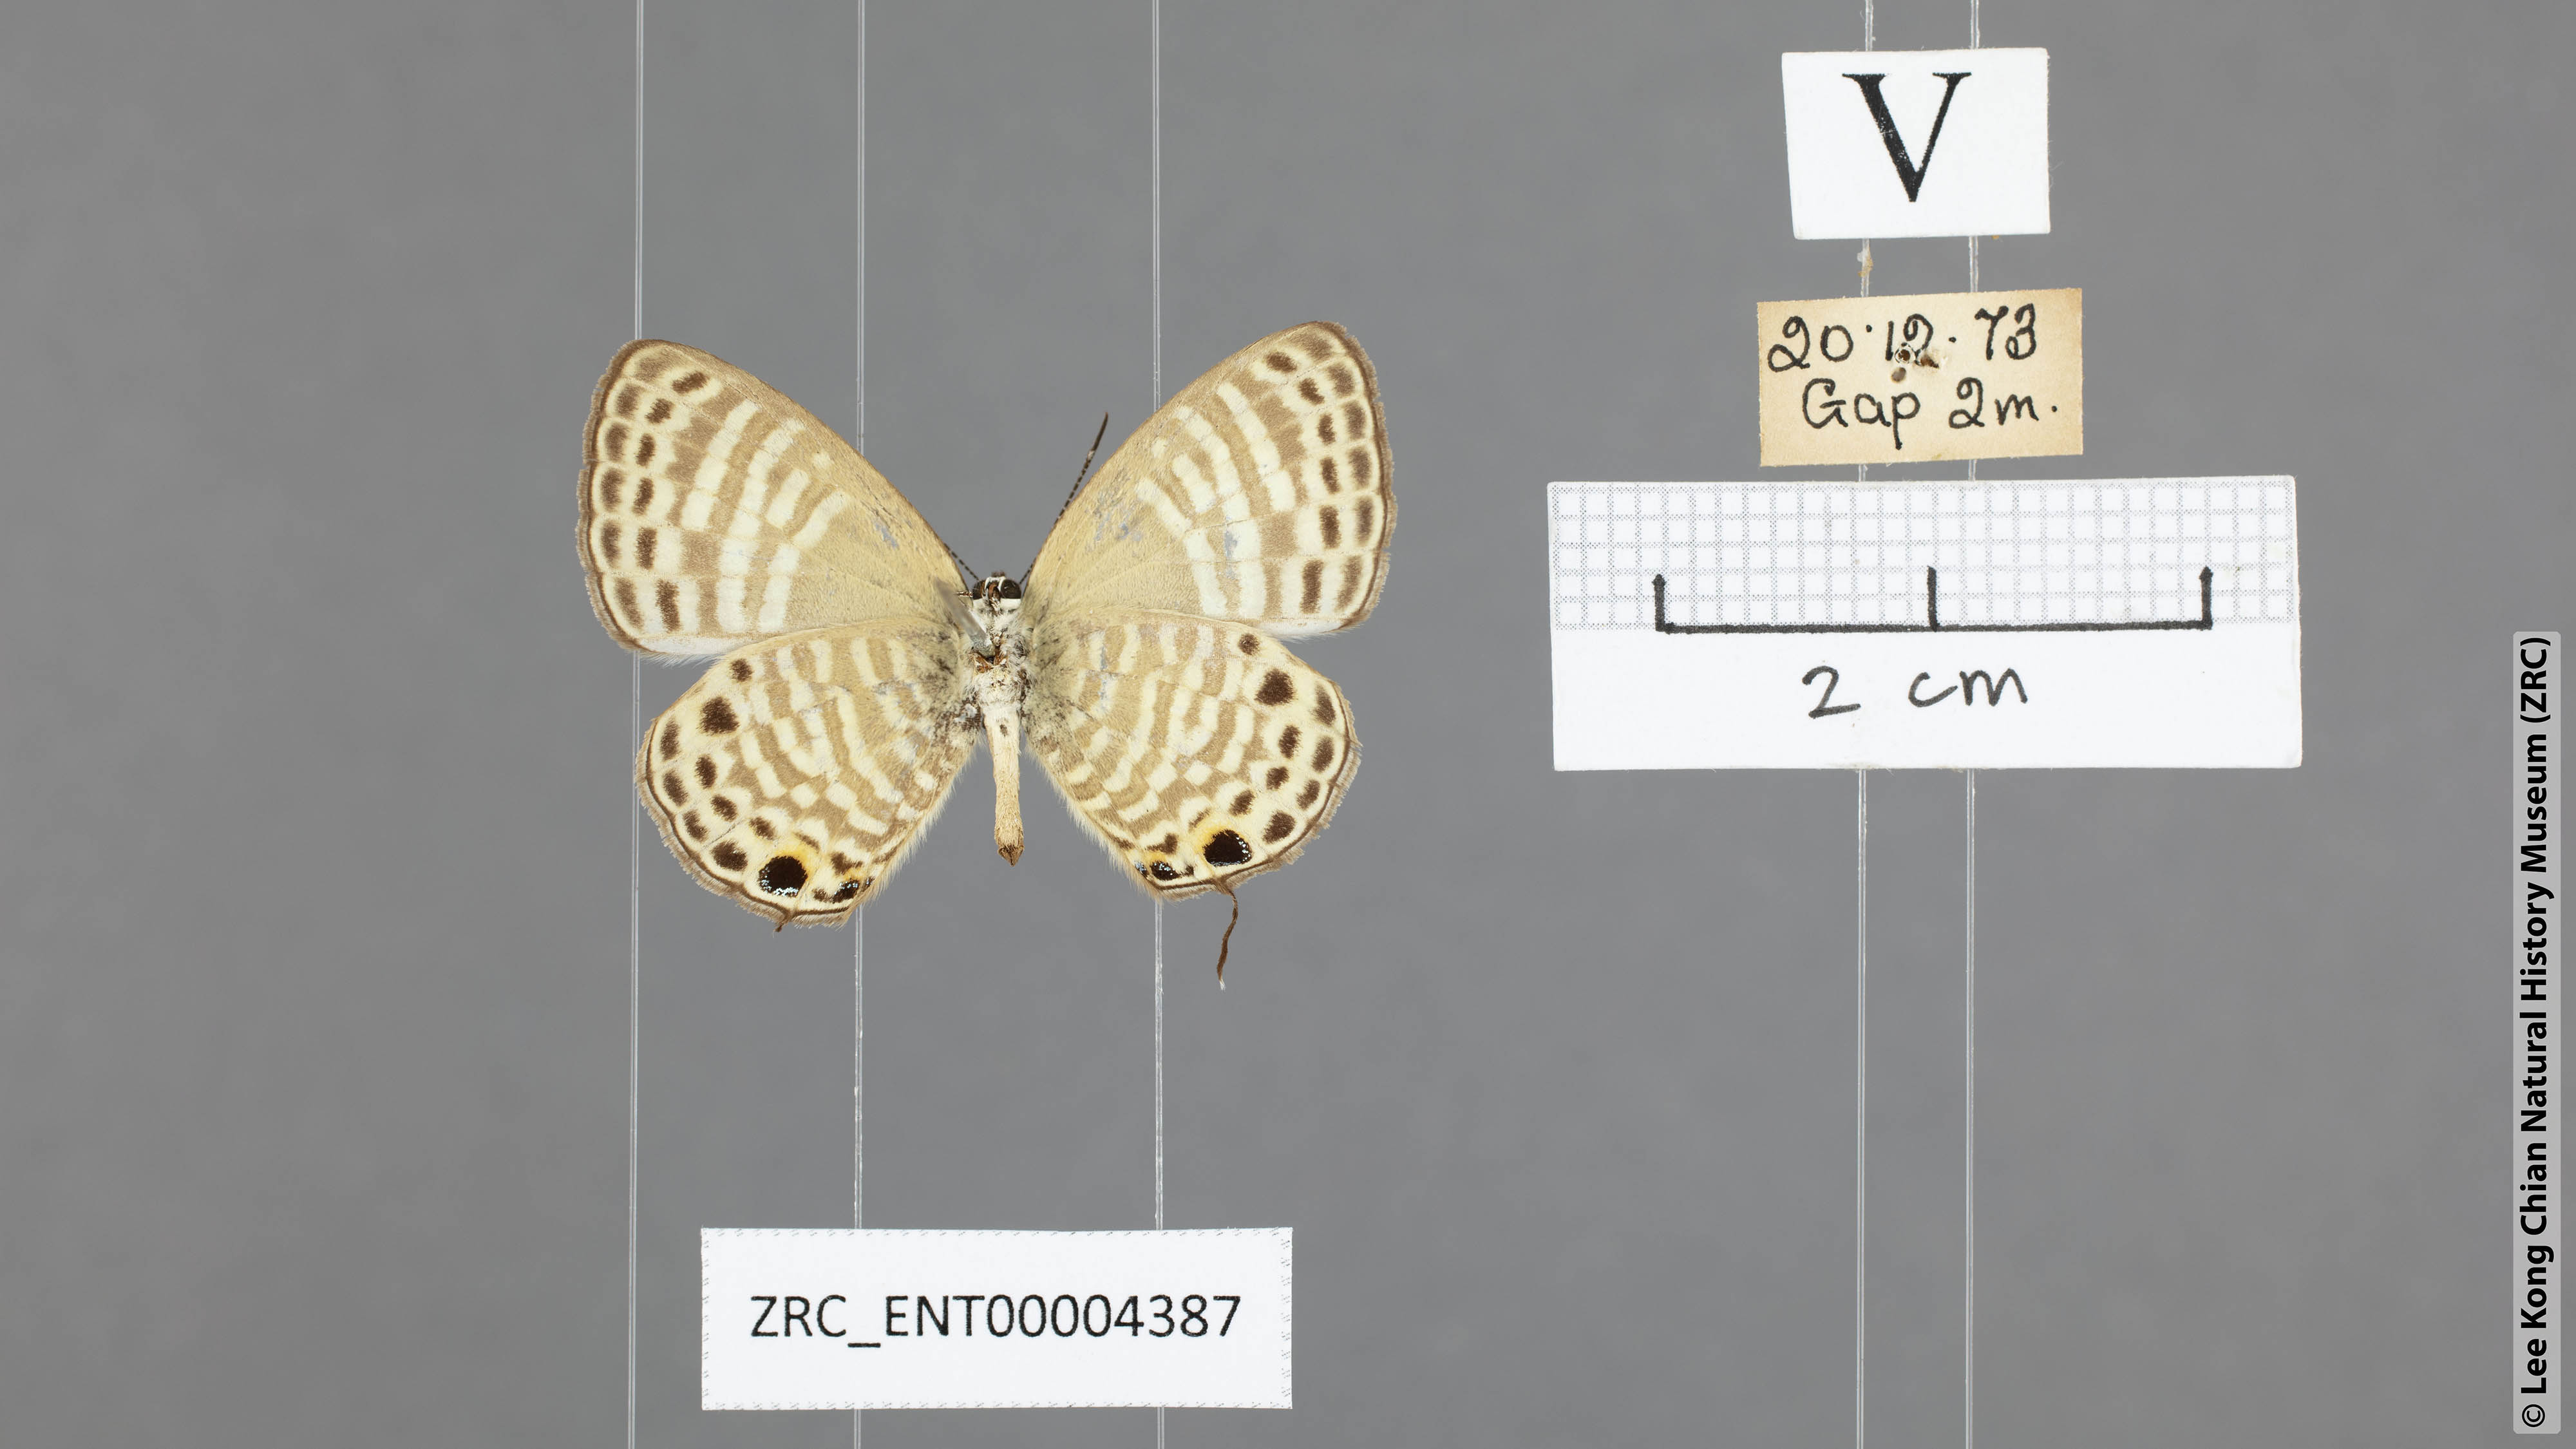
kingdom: Animalia
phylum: Arthropoda
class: Insecta
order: Lepidoptera
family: Lycaenidae
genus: Nacaduba
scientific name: Nacaduba angusta
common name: White four-line blue
